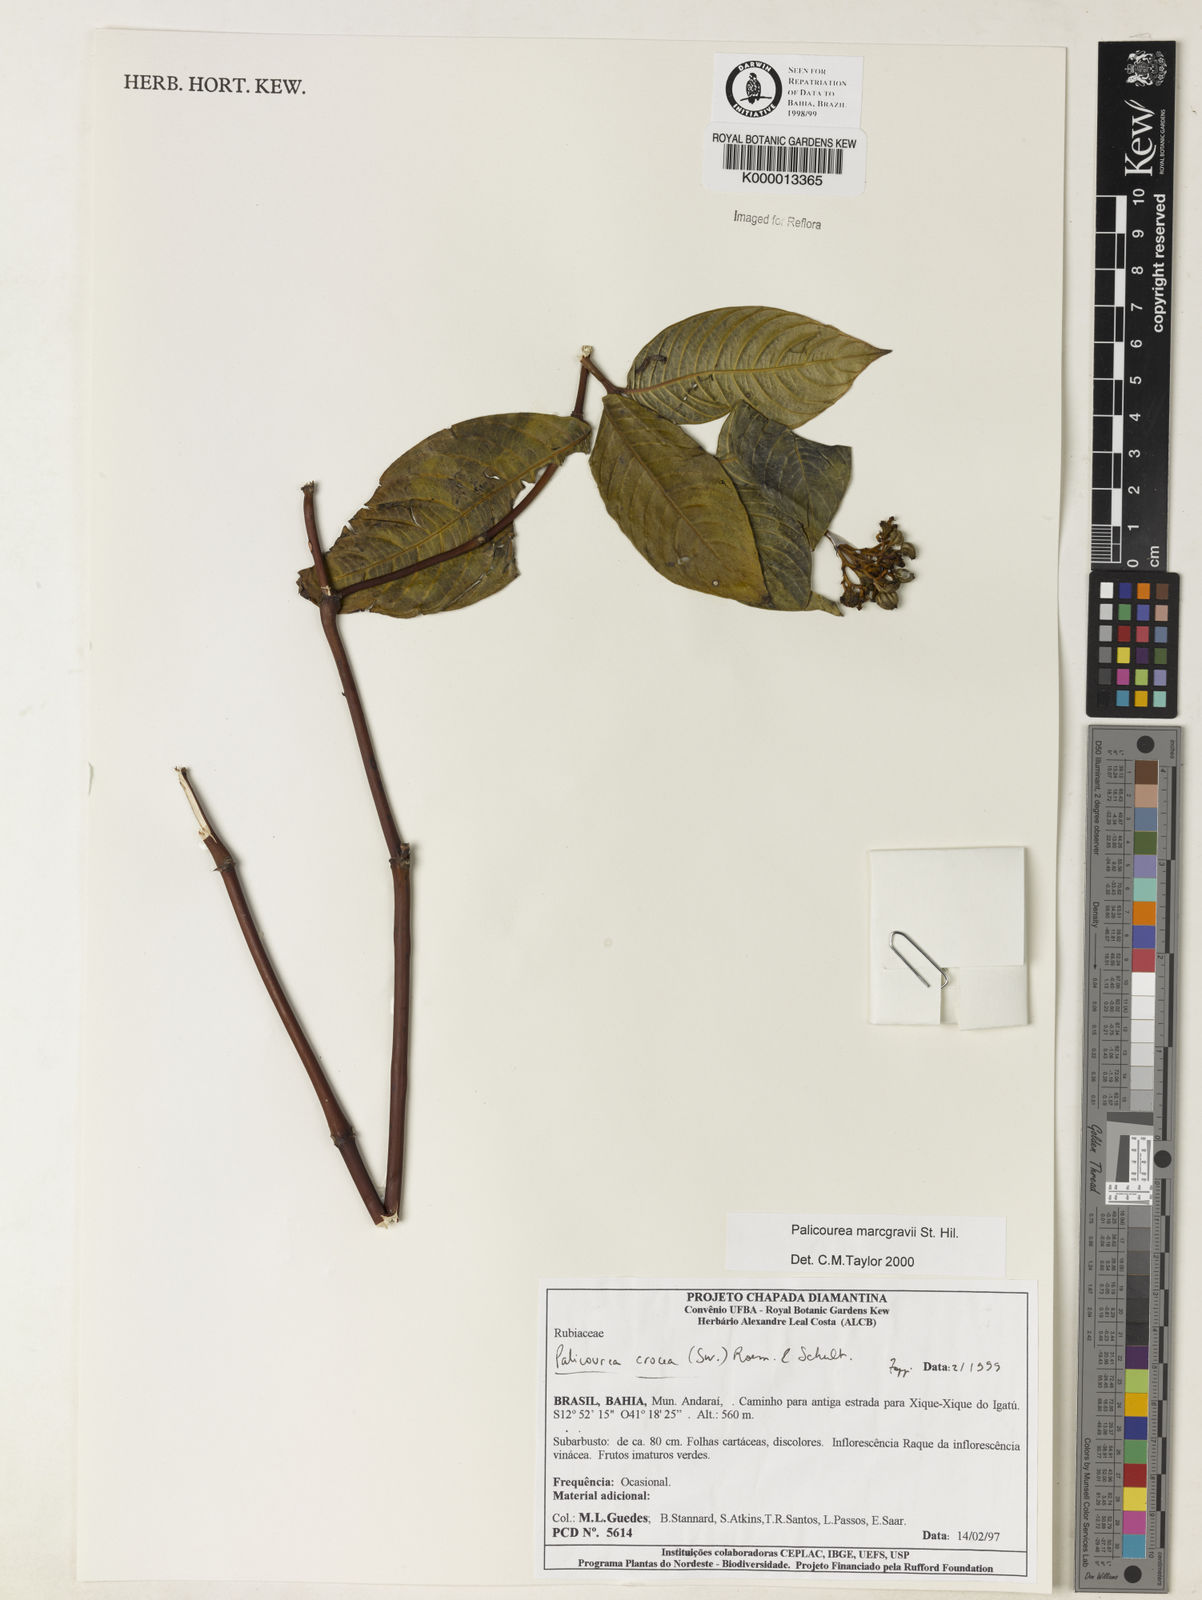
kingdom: Plantae
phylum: Tracheophyta
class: Magnoliopsida
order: Gentianales
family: Rubiaceae
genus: Palicourea
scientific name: Palicourea marcgravii
